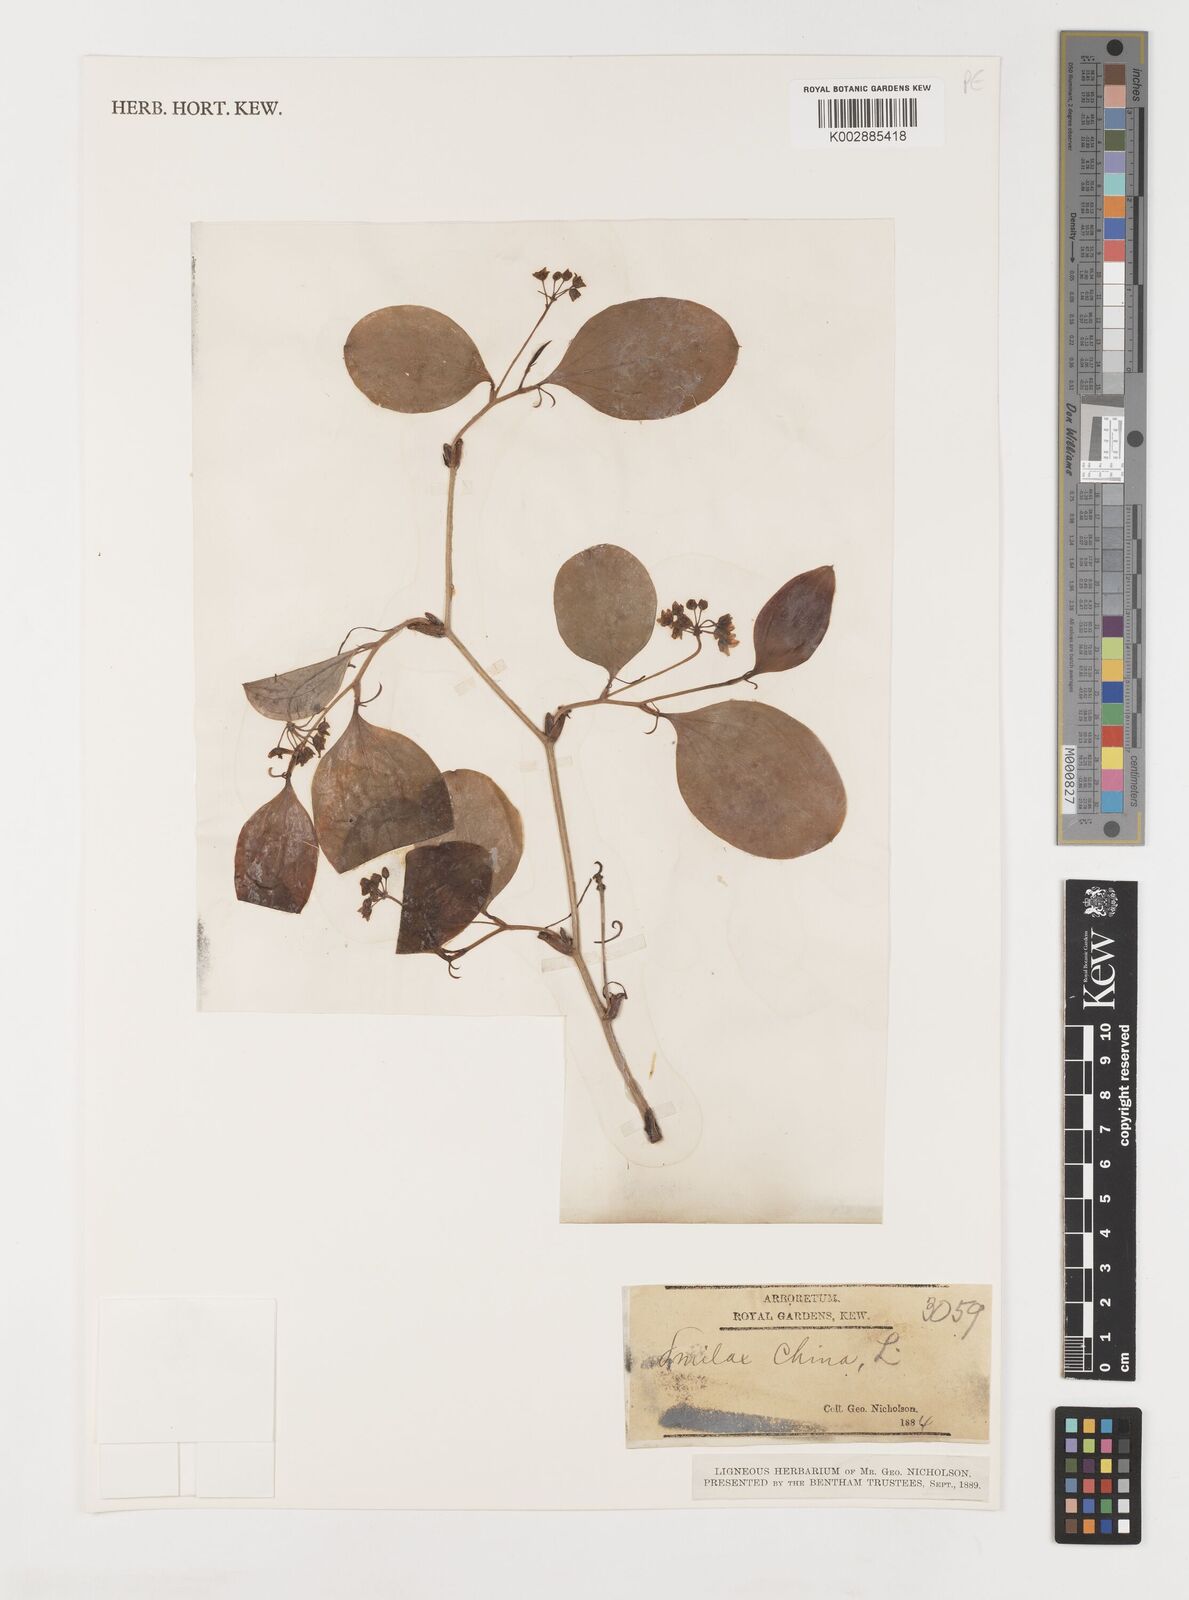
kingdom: Plantae
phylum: Tracheophyta
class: Liliopsida
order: Liliales
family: Smilacaceae
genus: Smilax
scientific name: Smilax china
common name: Chinaroot
